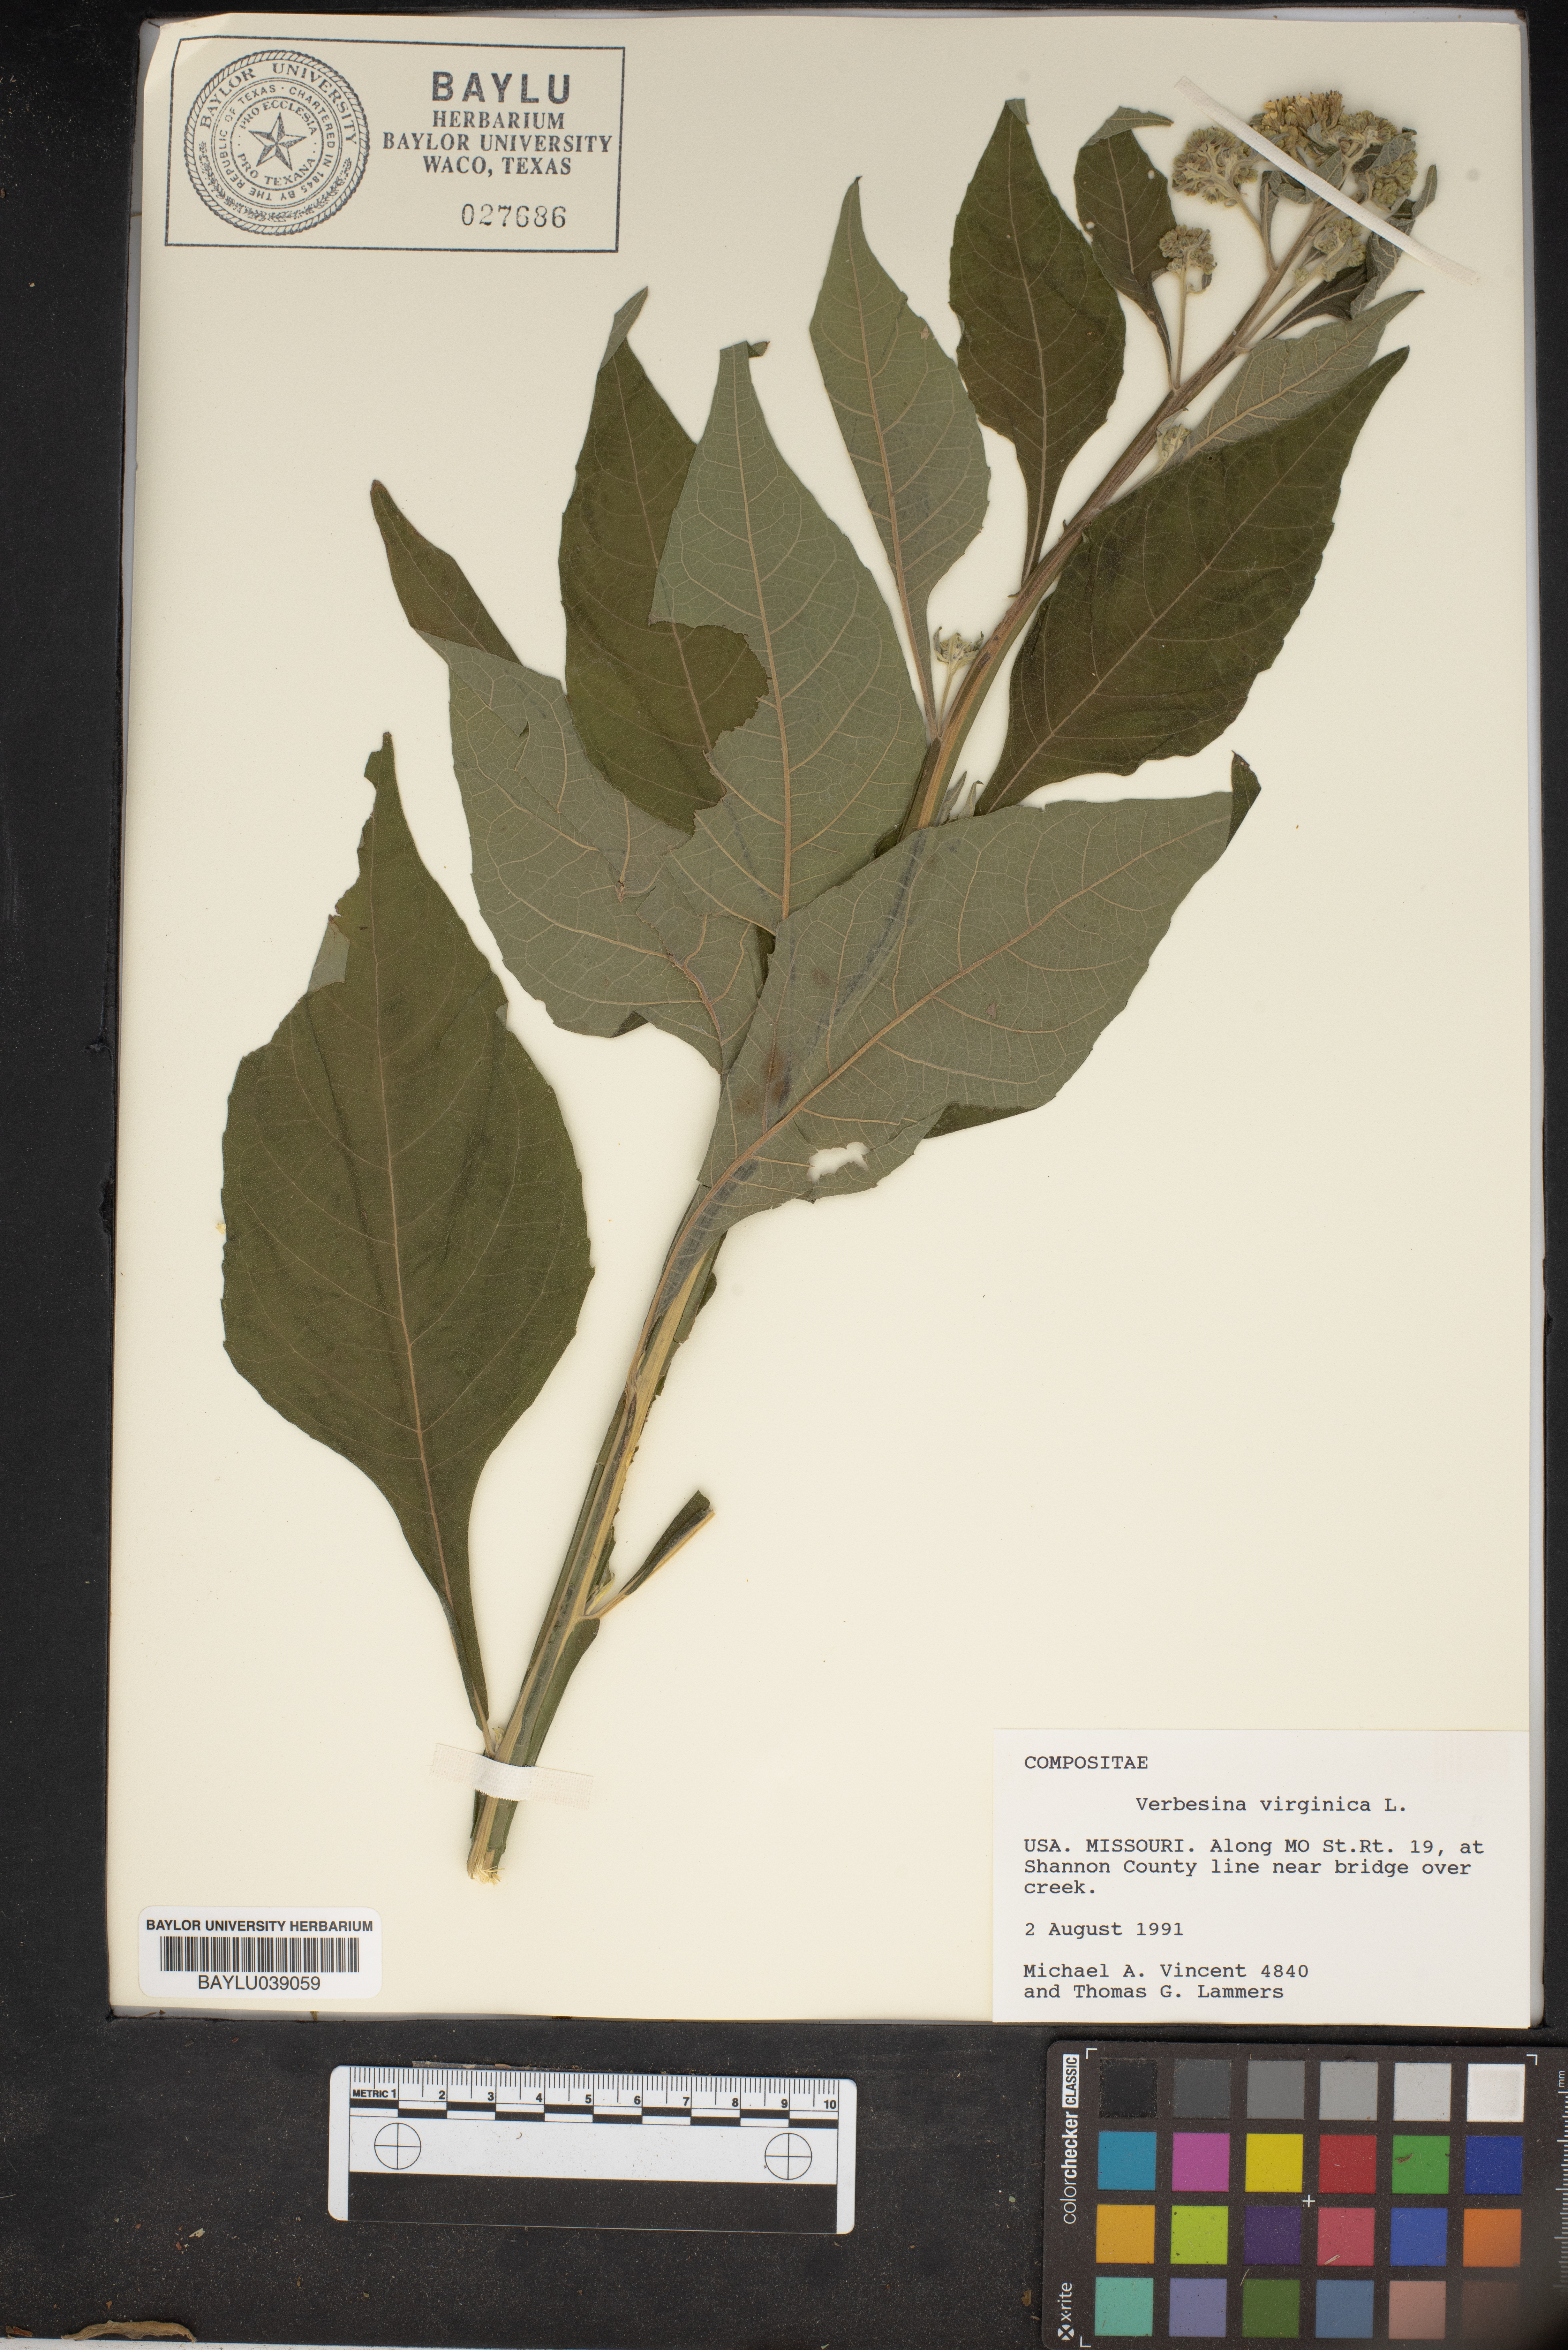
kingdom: Plantae
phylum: Tracheophyta
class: Magnoliopsida
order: Asterales
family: Asteraceae
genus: Verbesina
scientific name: Verbesina virginica
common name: Frostweed
